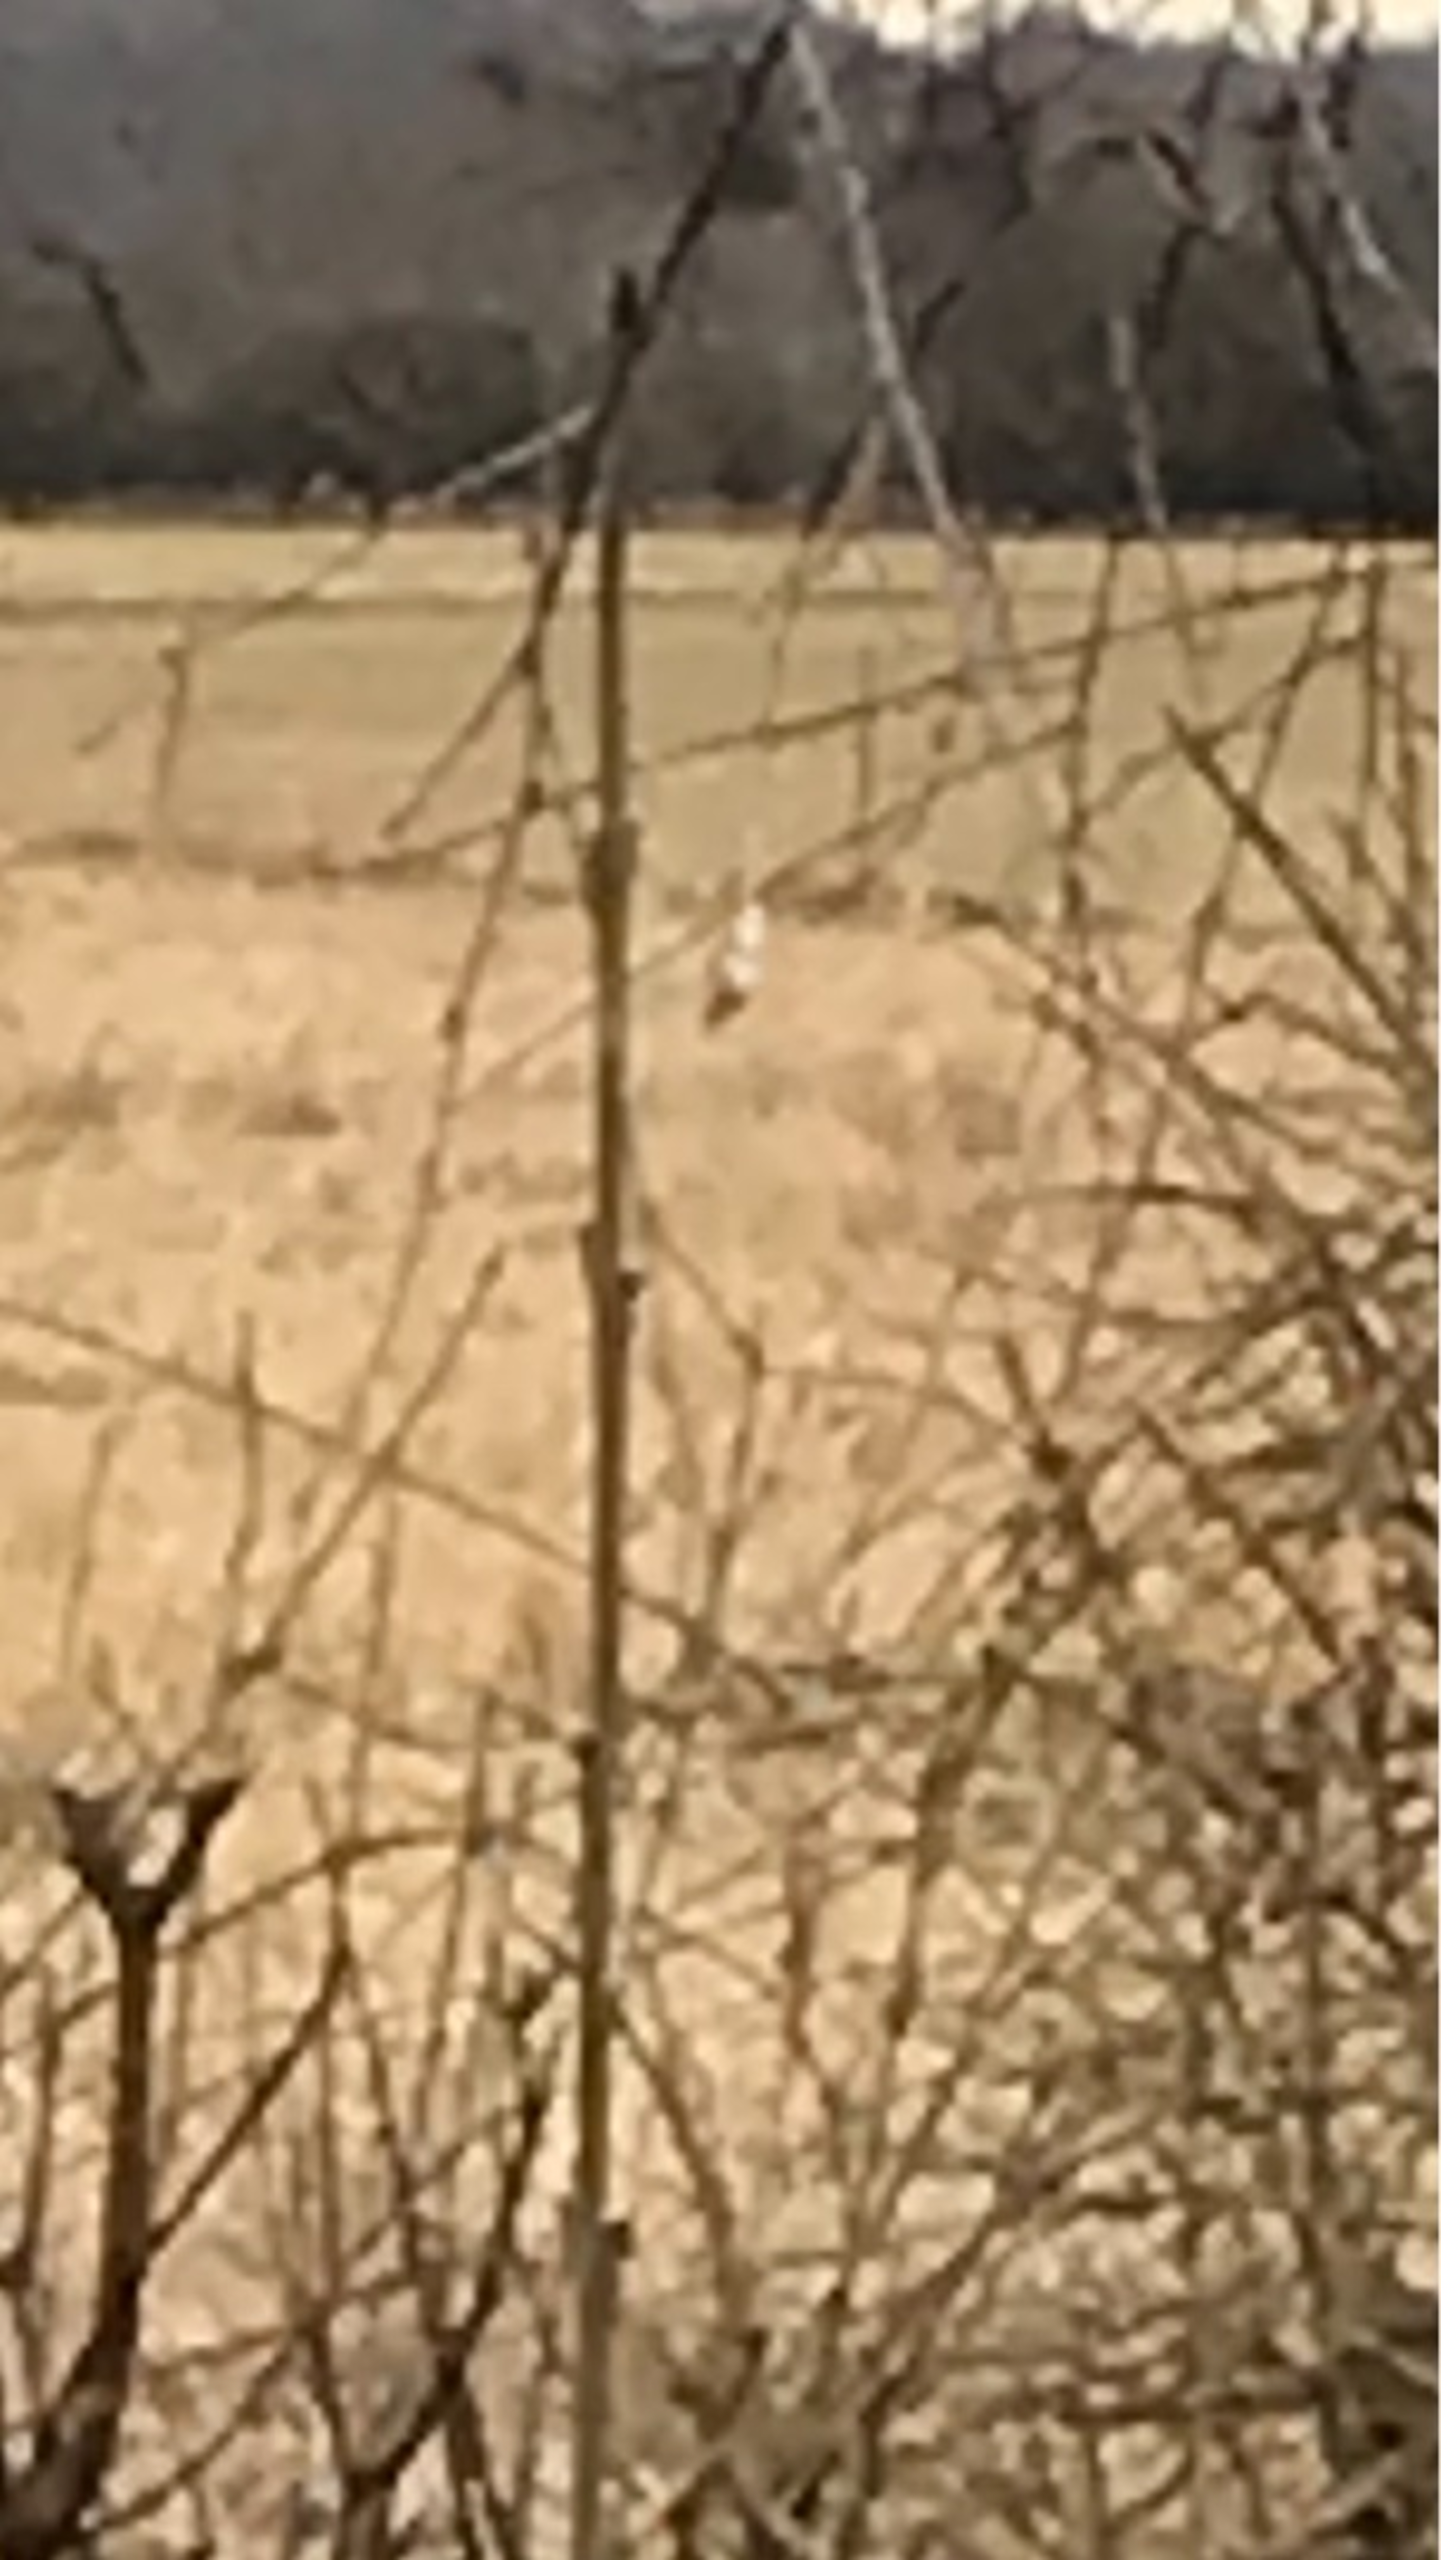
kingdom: Animalia
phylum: Chordata
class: Aves
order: Ciconiiformes
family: Ciconiidae
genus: Ciconia
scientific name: Ciconia ciconia
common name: Hvid stork
